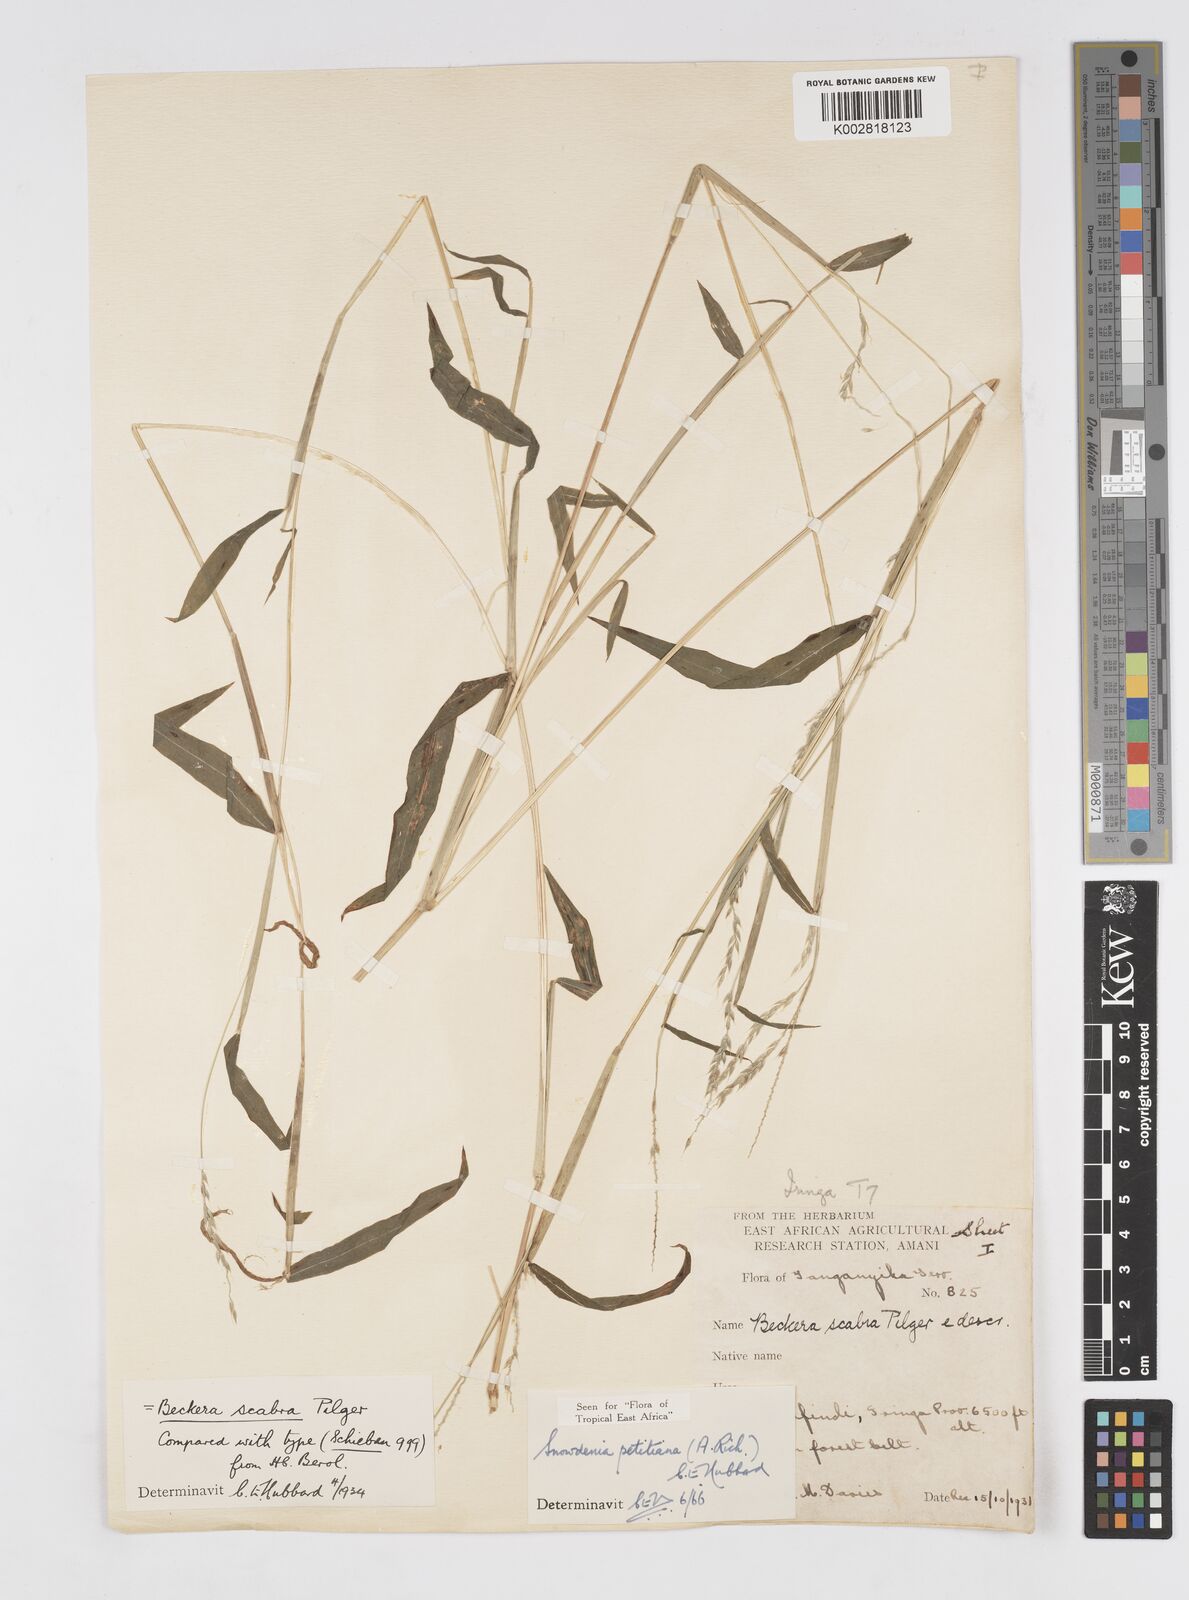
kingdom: Plantae
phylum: Tracheophyta
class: Liliopsida
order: Poales
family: Poaceae
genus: Snowdenia
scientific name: Snowdenia petitiana
